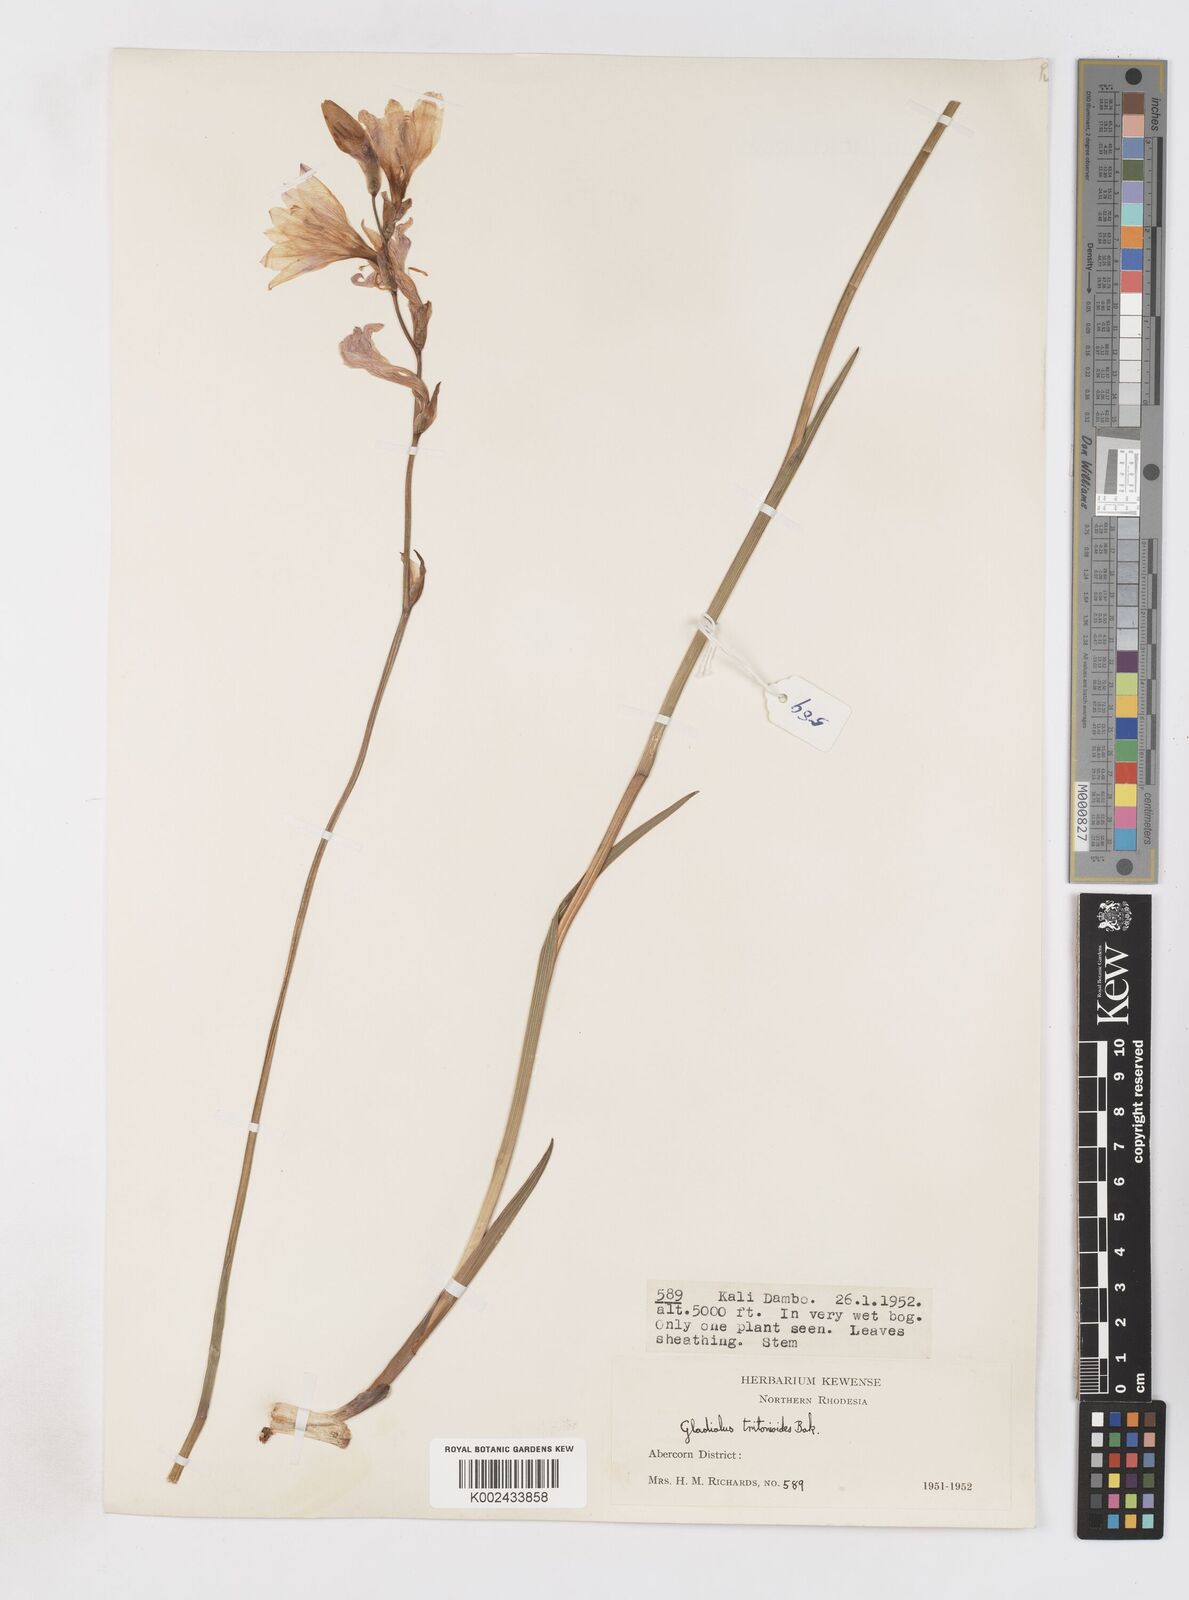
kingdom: Plantae
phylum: Tracheophyta
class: Liliopsida
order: Asparagales
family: Iridaceae
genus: Gladiolus
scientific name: Gladiolus laxiflorus
